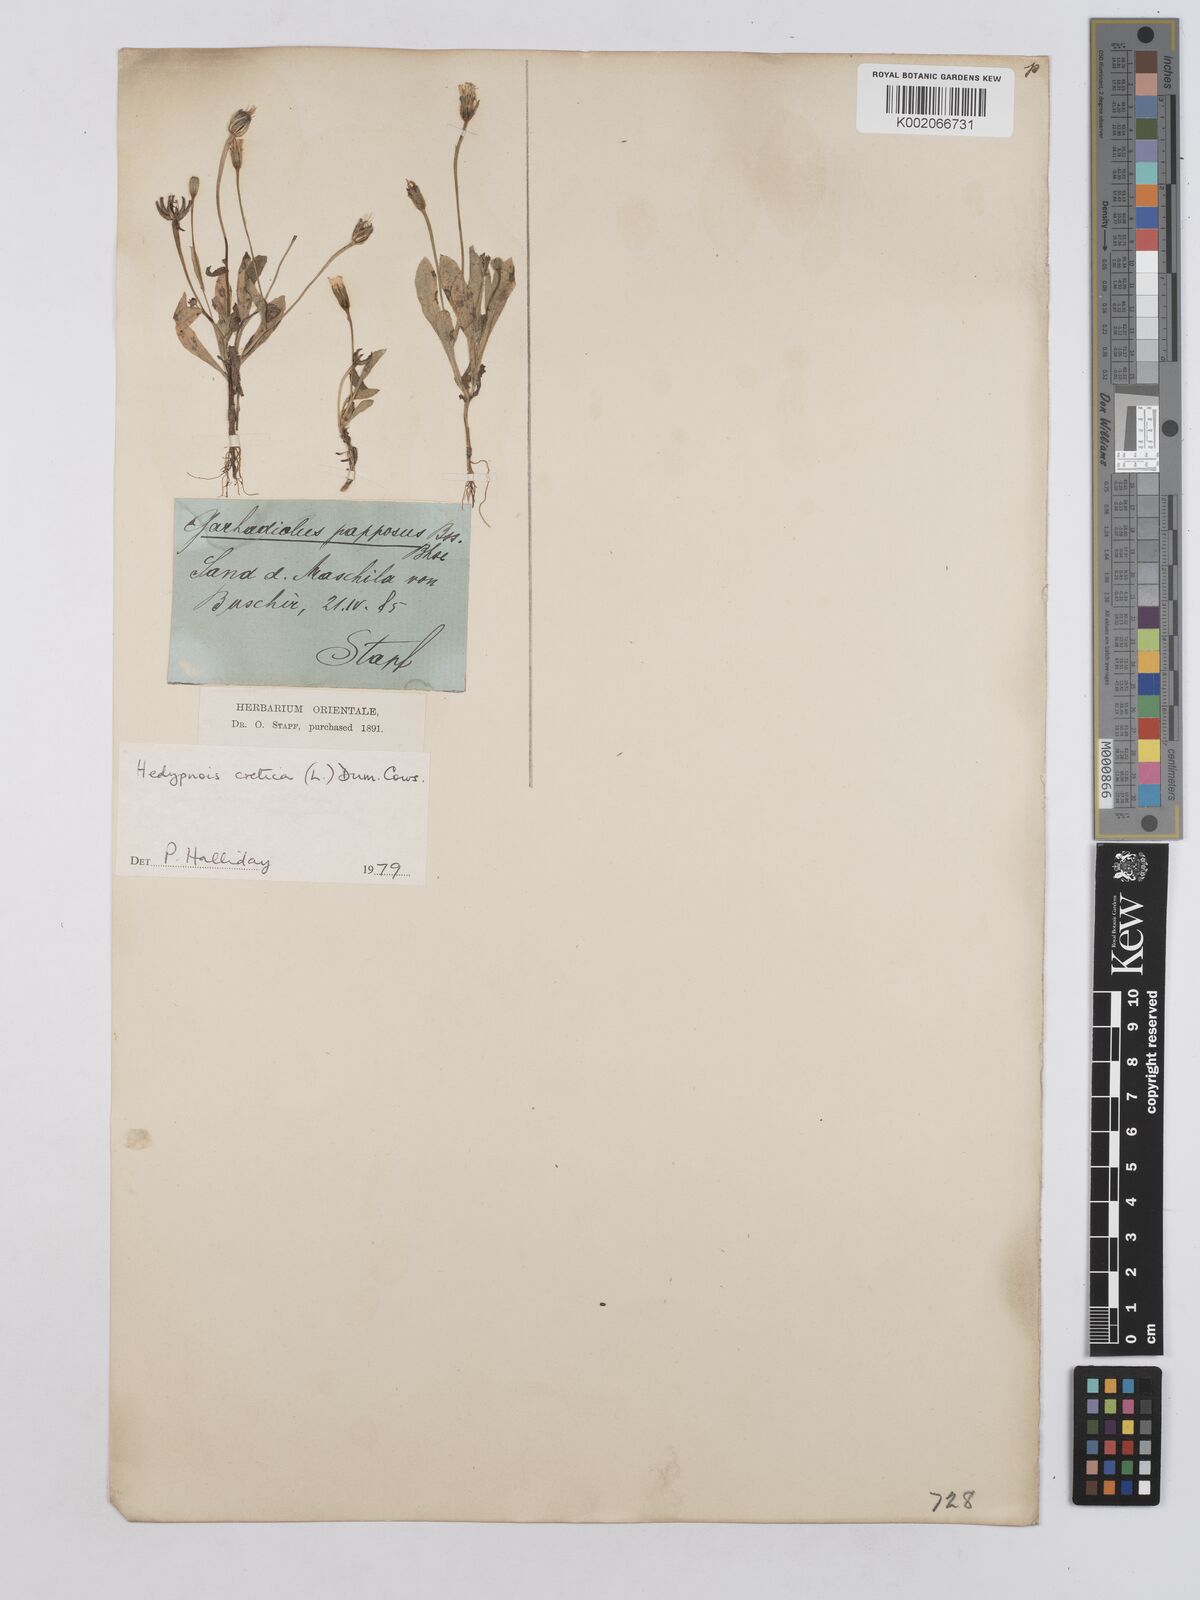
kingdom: Plantae
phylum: Tracheophyta
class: Magnoliopsida
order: Asterales
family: Asteraceae
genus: Hedypnois
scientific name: Hedypnois cretica
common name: Scaly hawkbit
